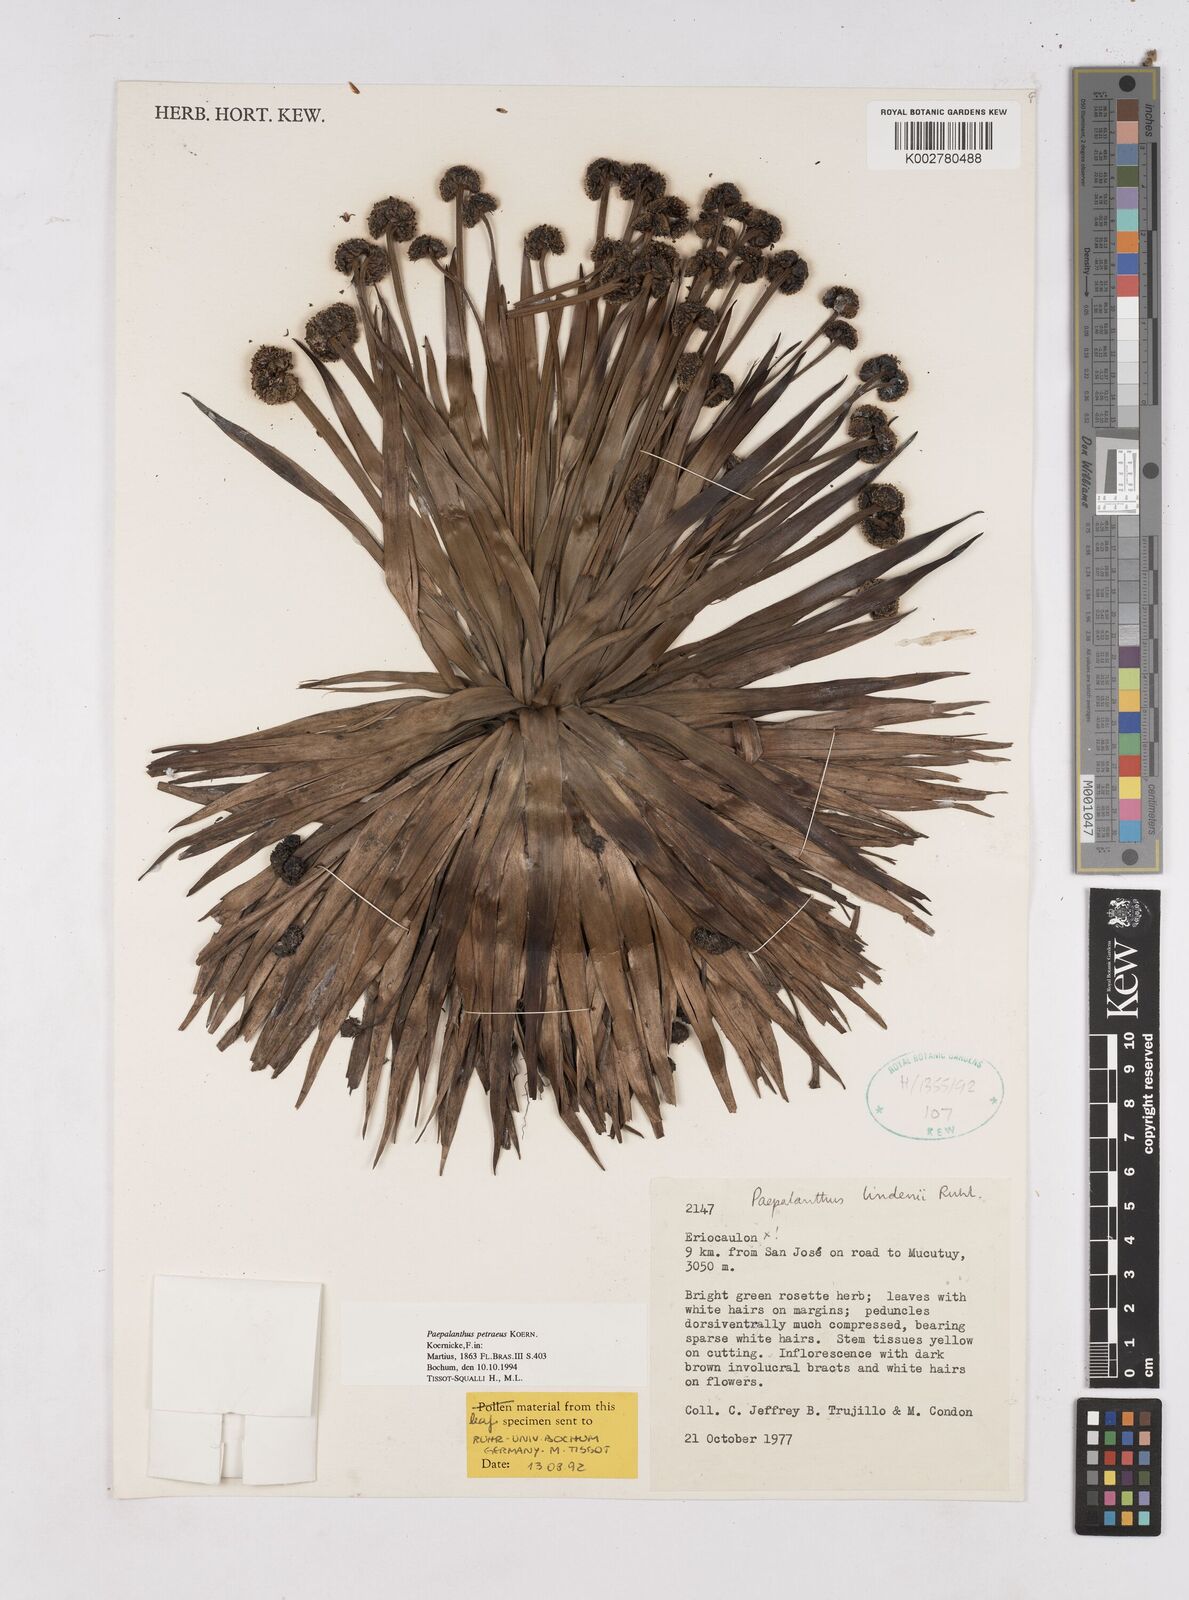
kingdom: Plantae
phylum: Tracheophyta
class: Liliopsida
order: Poales
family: Eriocaulaceae
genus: Paepalanthus
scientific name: Paepalanthus petraeus
